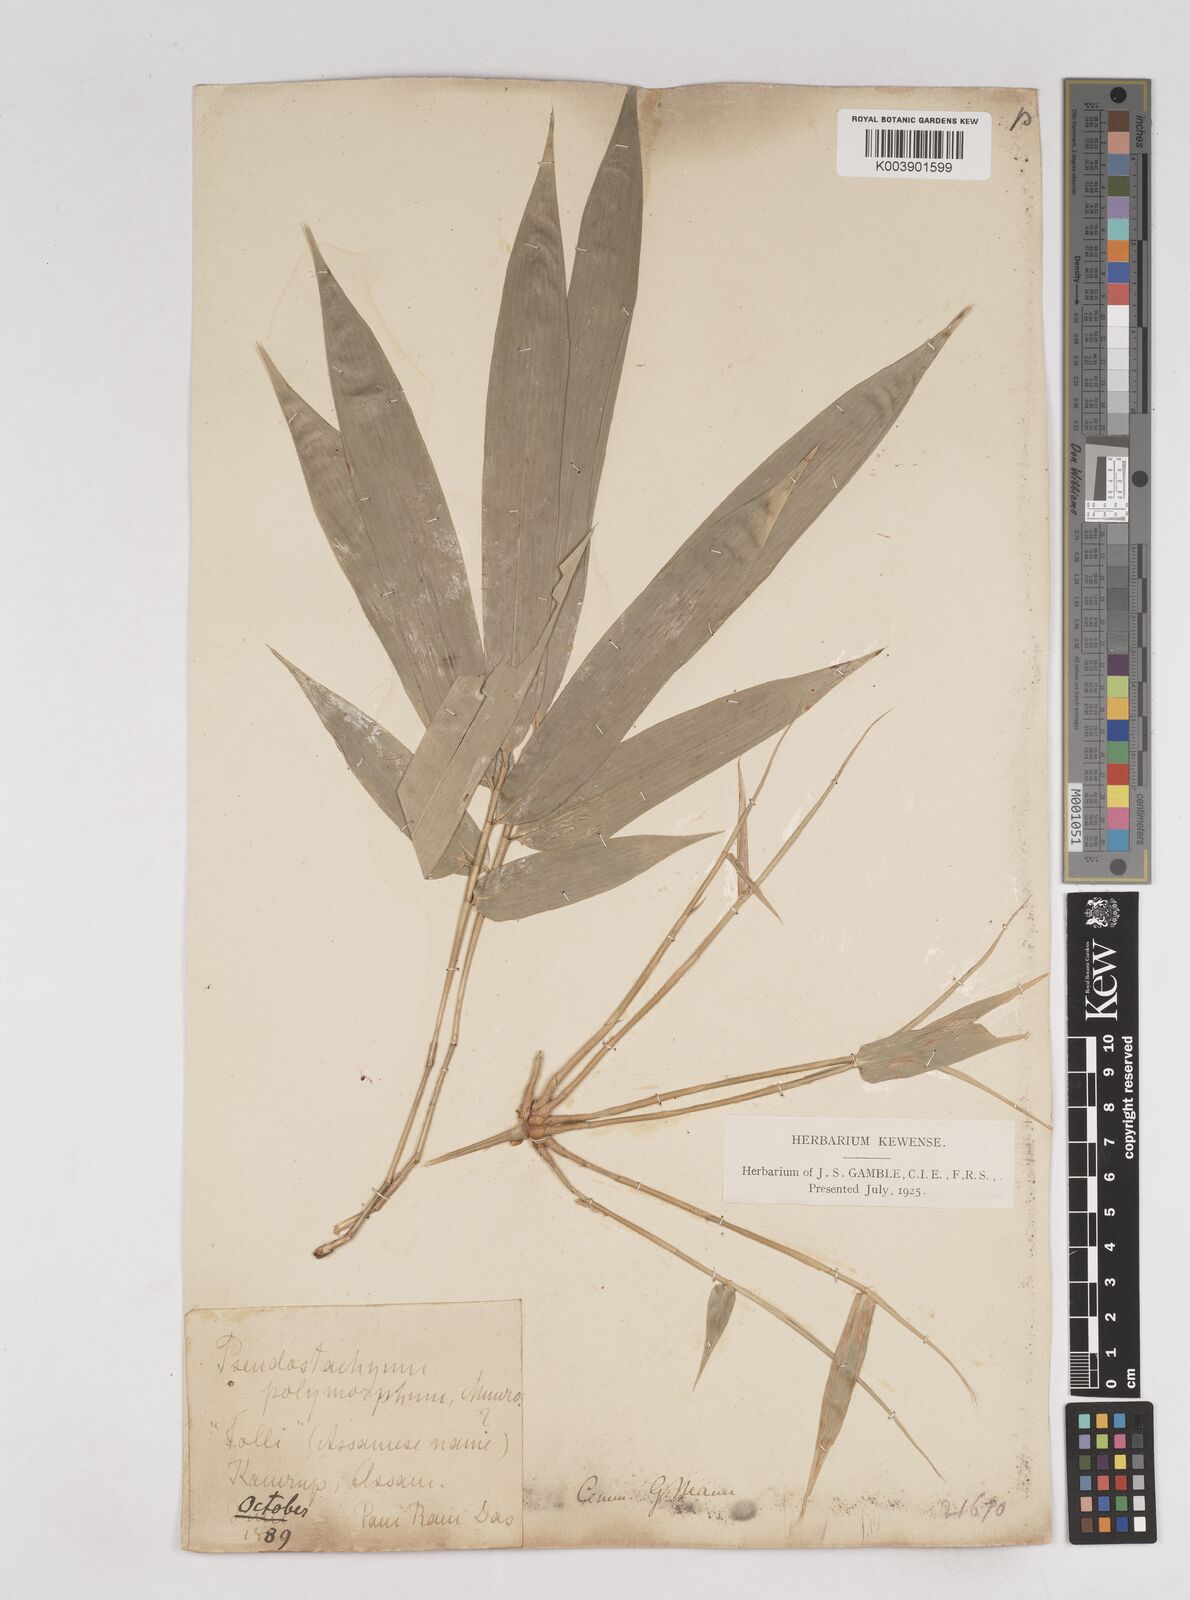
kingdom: Plantae
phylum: Tracheophyta
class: Liliopsida
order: Poales
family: Poaceae
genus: Pseudostachyum
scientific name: Pseudostachyum polymorphum
